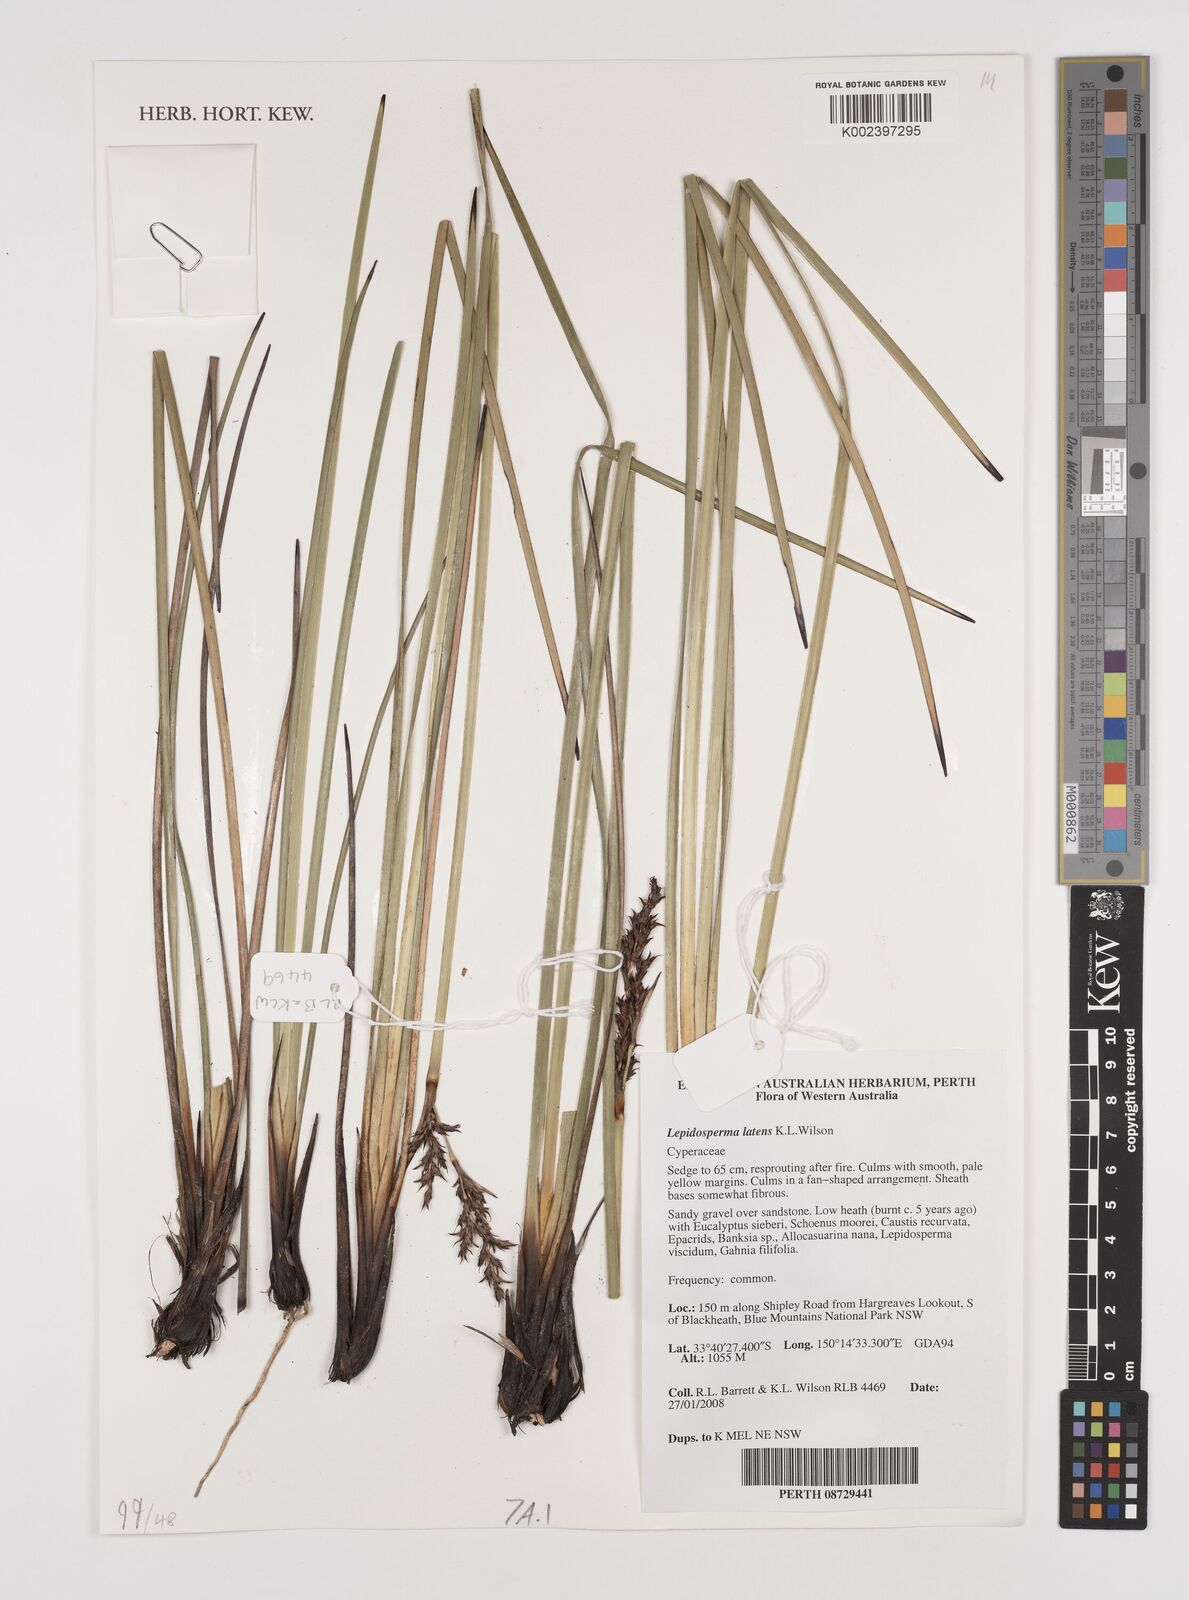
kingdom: Plantae
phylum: Tracheophyta
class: Liliopsida
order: Poales
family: Cyperaceae
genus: Lepidosperma
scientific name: Lepidosperma latens
